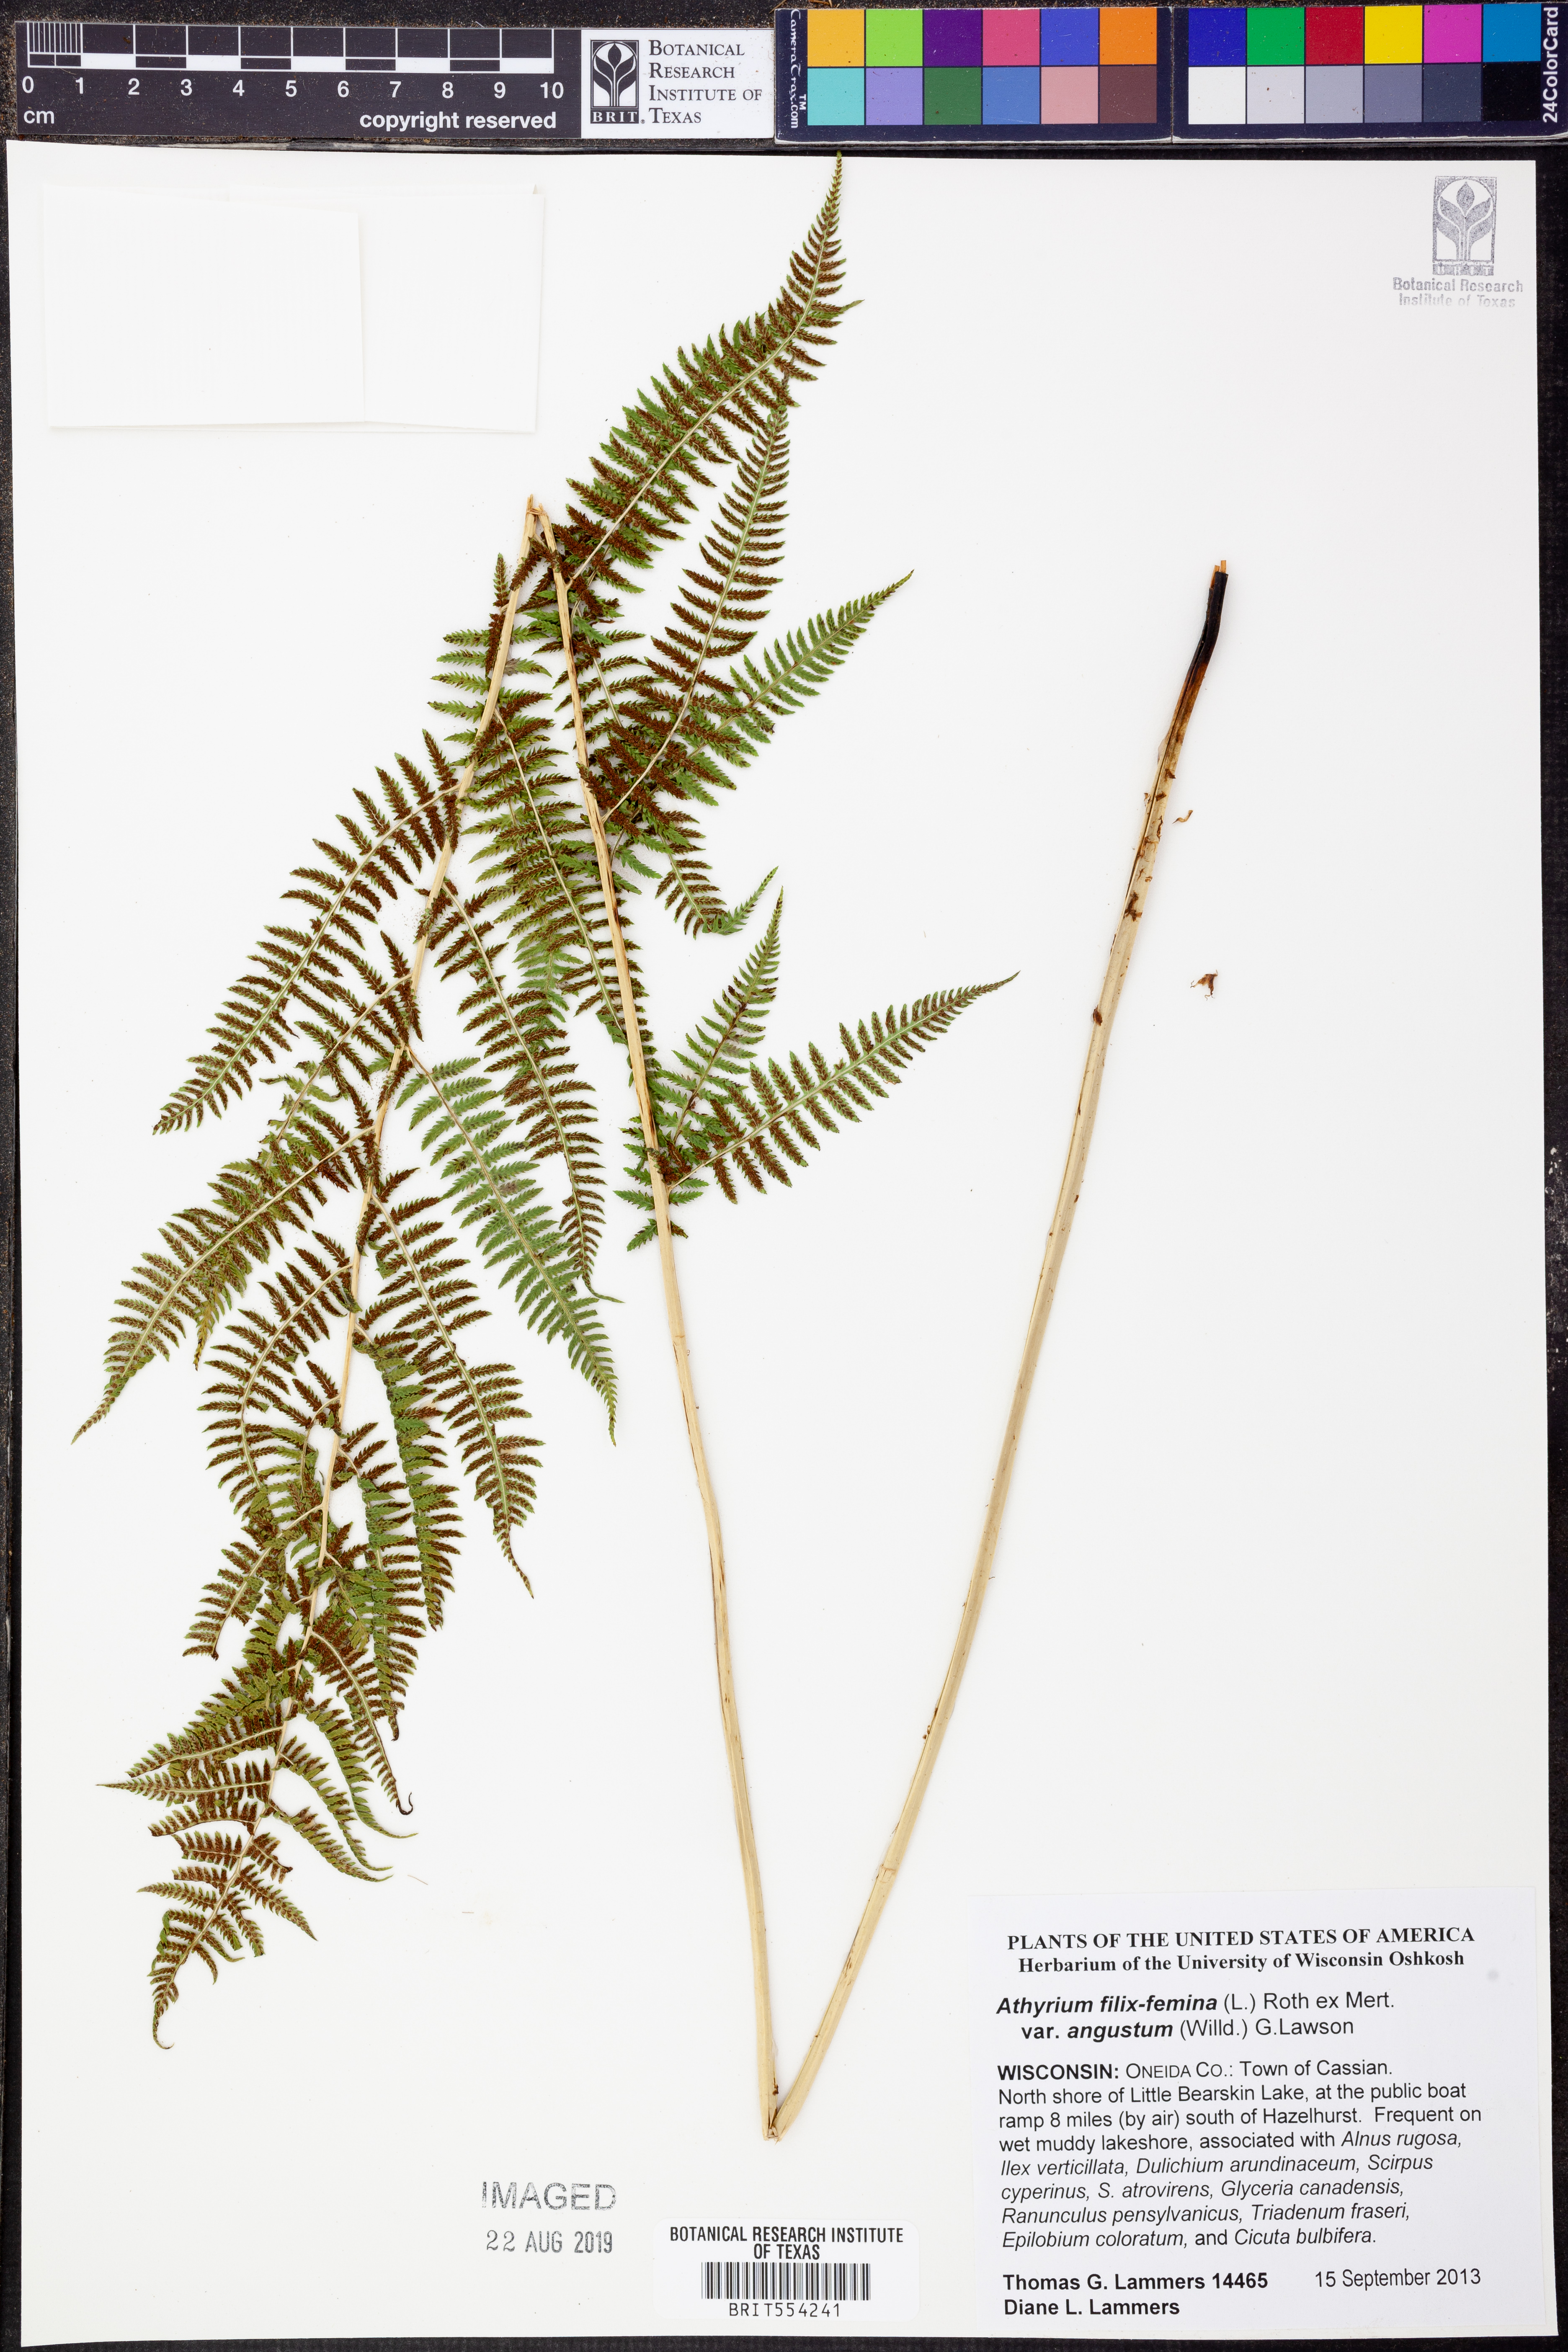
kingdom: Plantae
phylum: Tracheophyta
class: Polypodiopsida
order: Polypodiales
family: Athyriaceae
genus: Athyrium
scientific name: Athyrium angustum
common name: Northern lady fern
